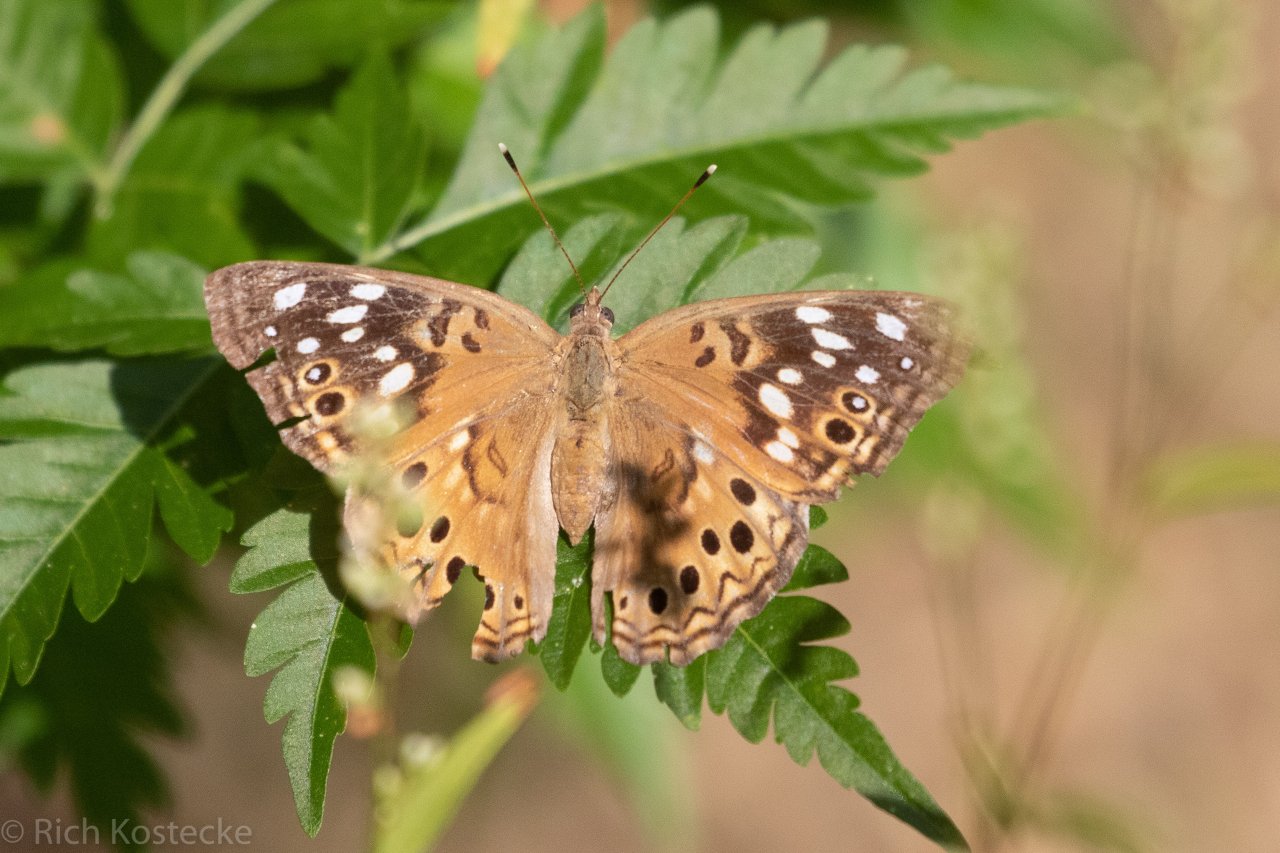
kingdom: Animalia
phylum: Arthropoda
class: Insecta
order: Lepidoptera
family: Nymphalidae
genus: Asterocampa
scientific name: Asterocampa celtis
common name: Hackberry Emperor
